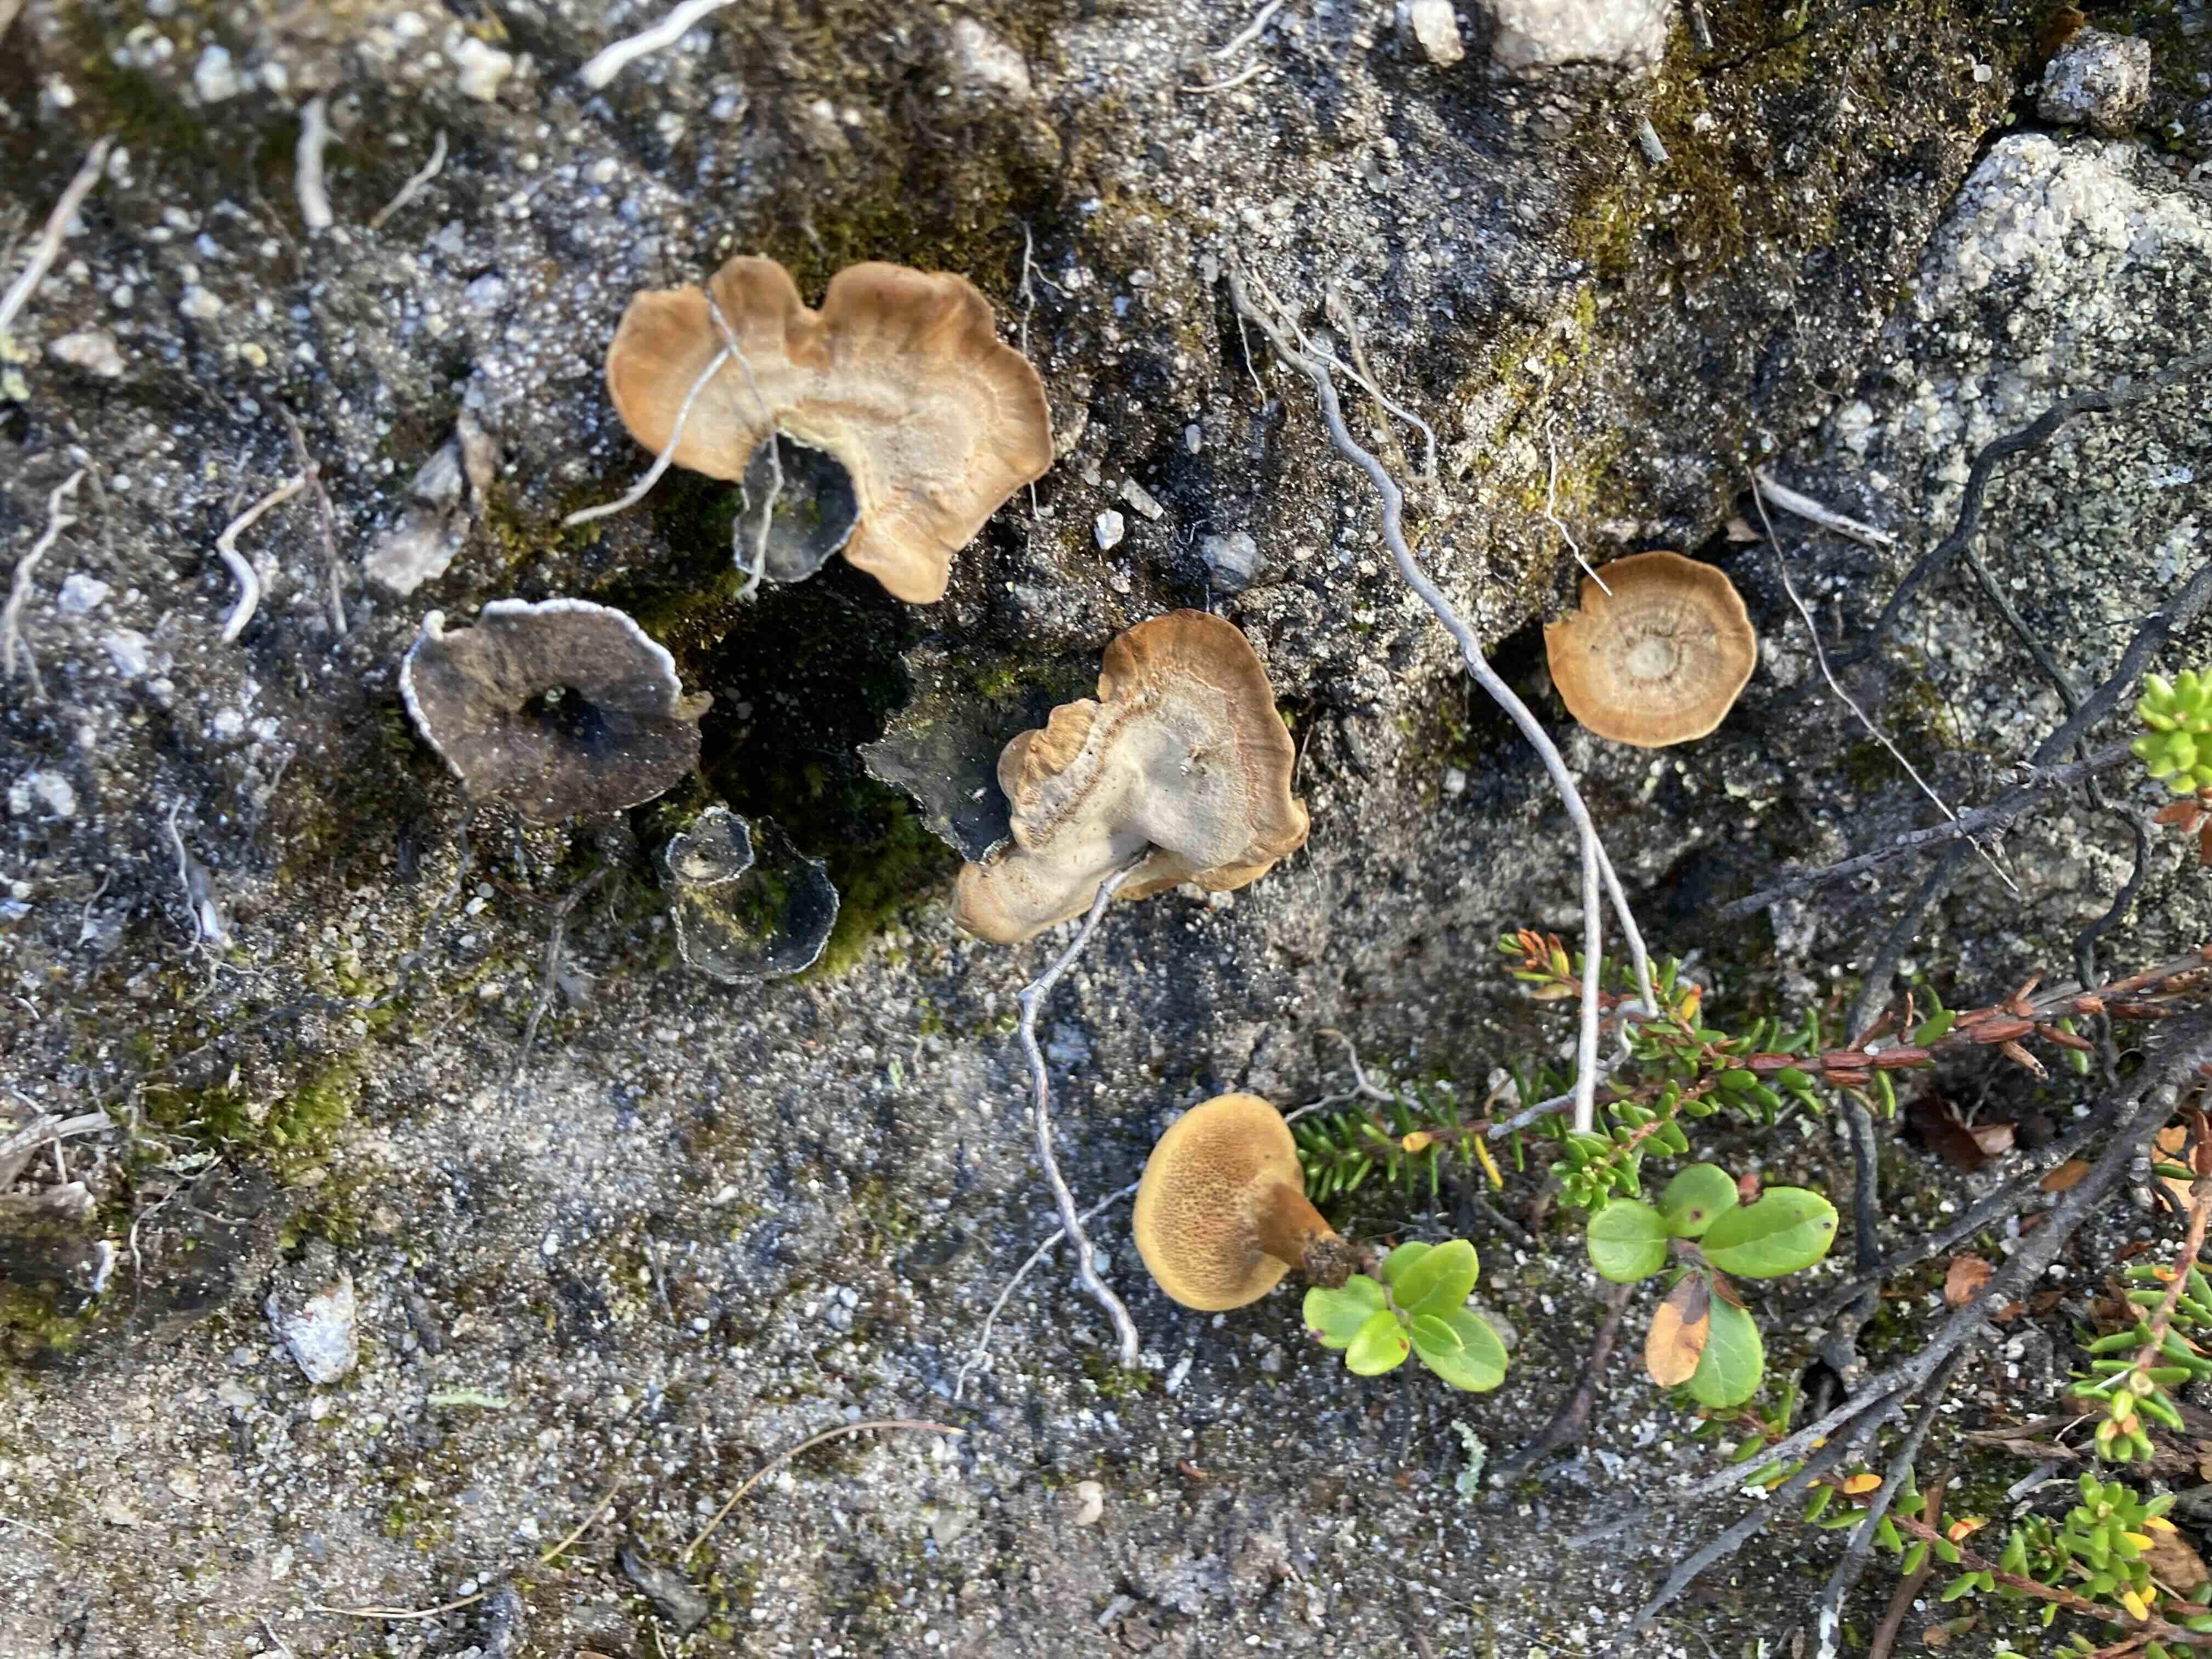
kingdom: Fungi
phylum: Basidiomycota
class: Agaricomycetes
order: Hymenochaetales
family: Hymenochaetaceae
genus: Coltricia
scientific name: Coltricia perennis
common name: almindelig sandporesvamp
